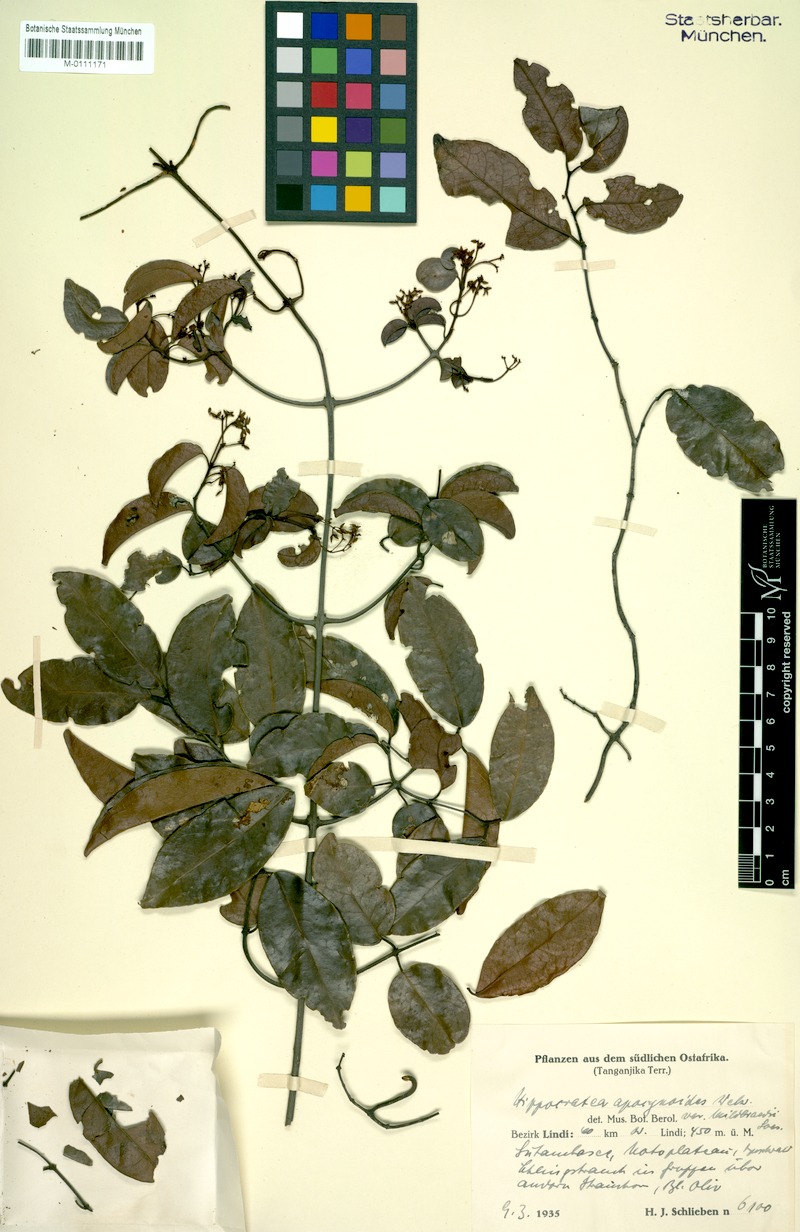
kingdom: Plantae
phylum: Tracheophyta
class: Magnoliopsida
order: Celastrales
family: Celastraceae
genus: Loeseneriella
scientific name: Loeseneriella apocynoides
